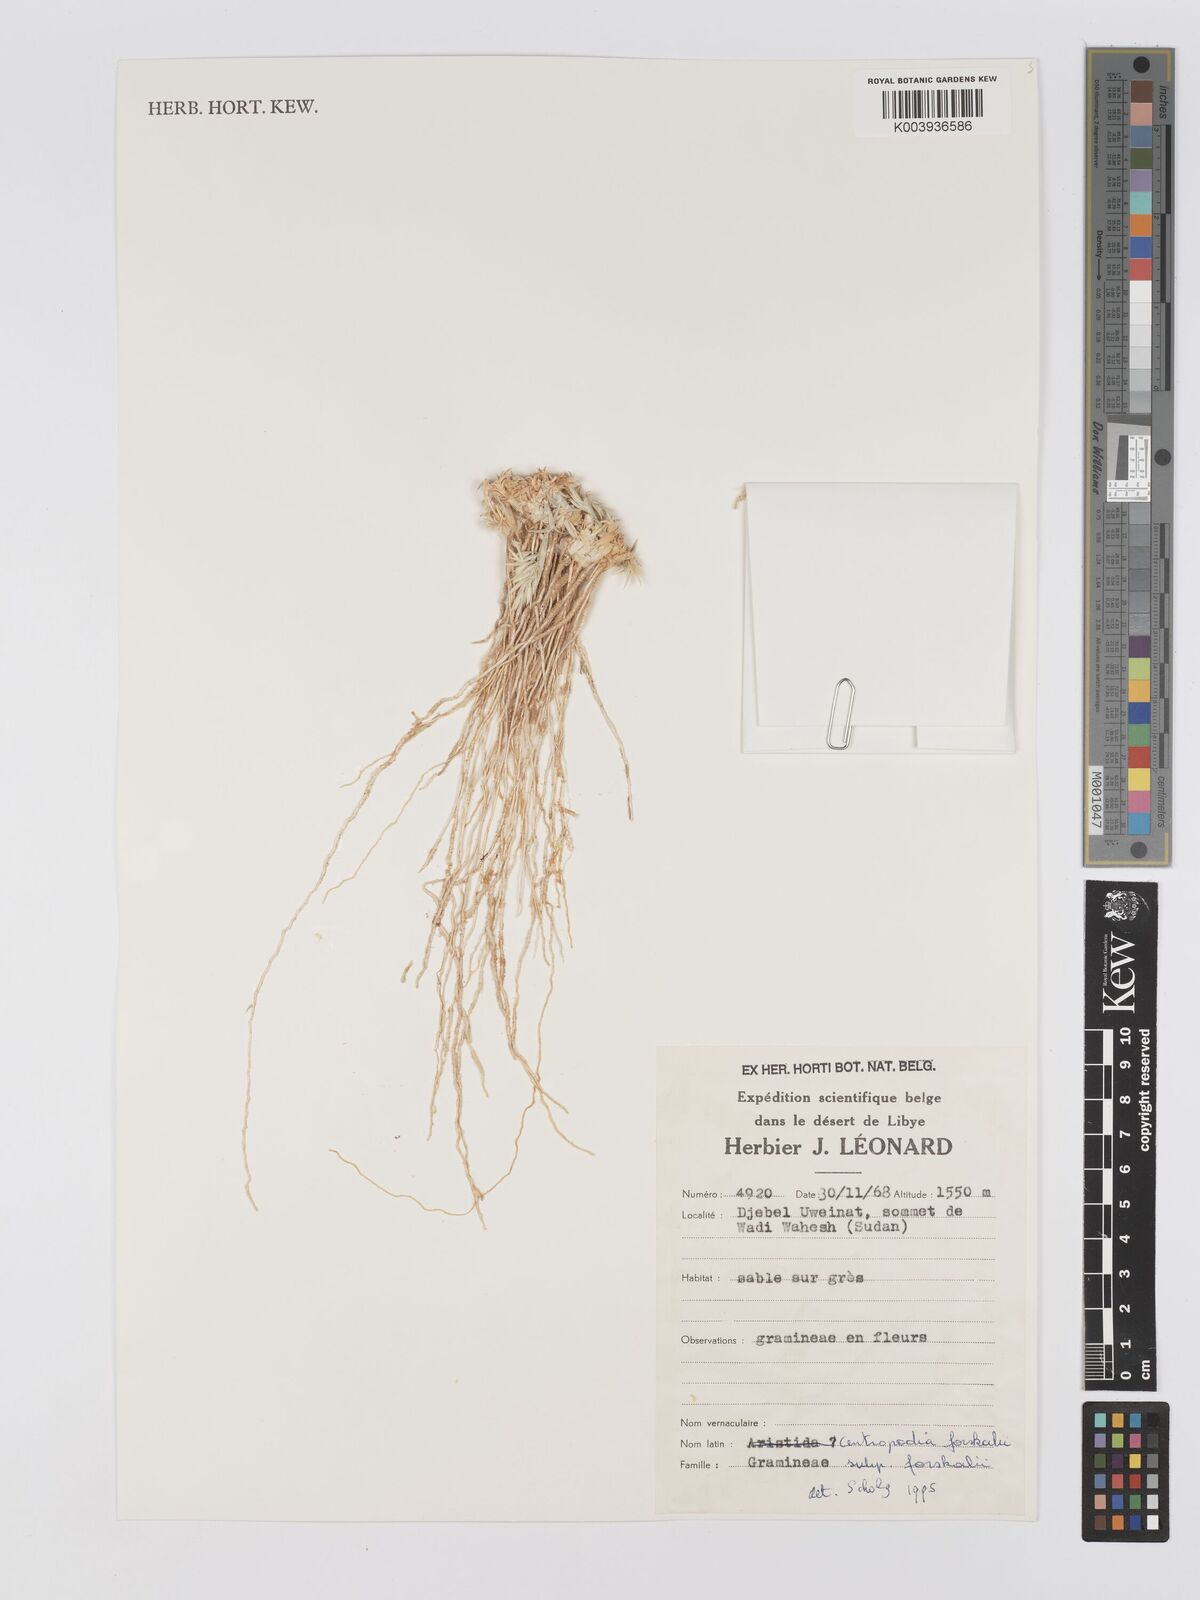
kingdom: Plantae
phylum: Tracheophyta
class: Liliopsida
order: Poales
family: Poaceae
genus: Centropodia
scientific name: Centropodia forskaolii
